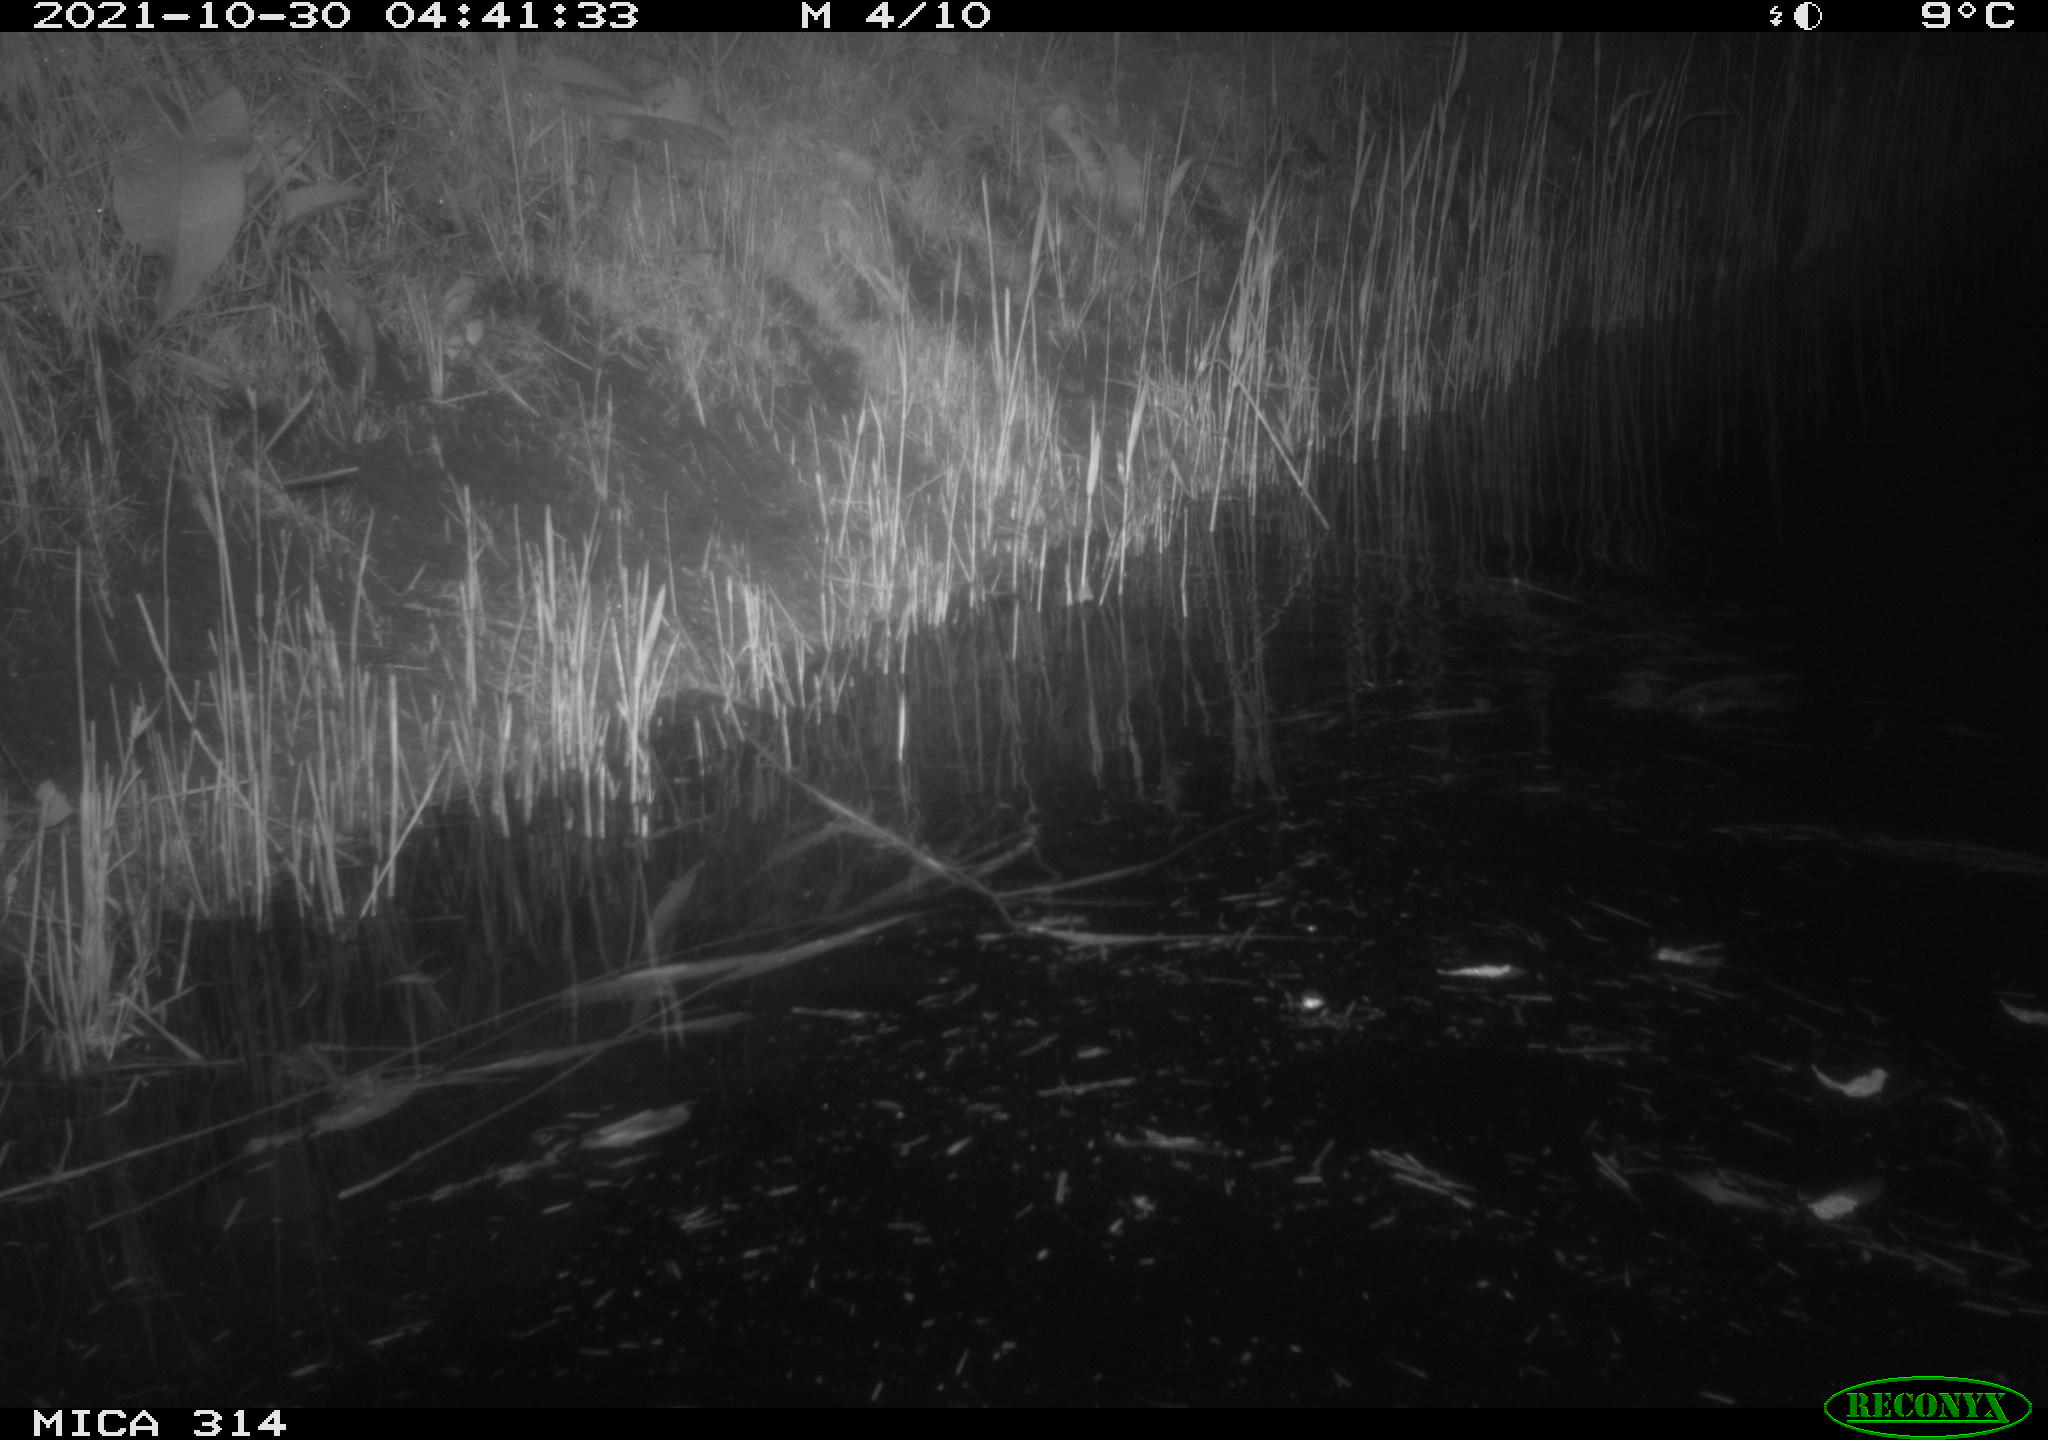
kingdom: Animalia
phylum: Chordata
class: Mammalia
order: Rodentia
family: Muridae
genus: Rattus
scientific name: Rattus norvegicus
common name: Brown rat
